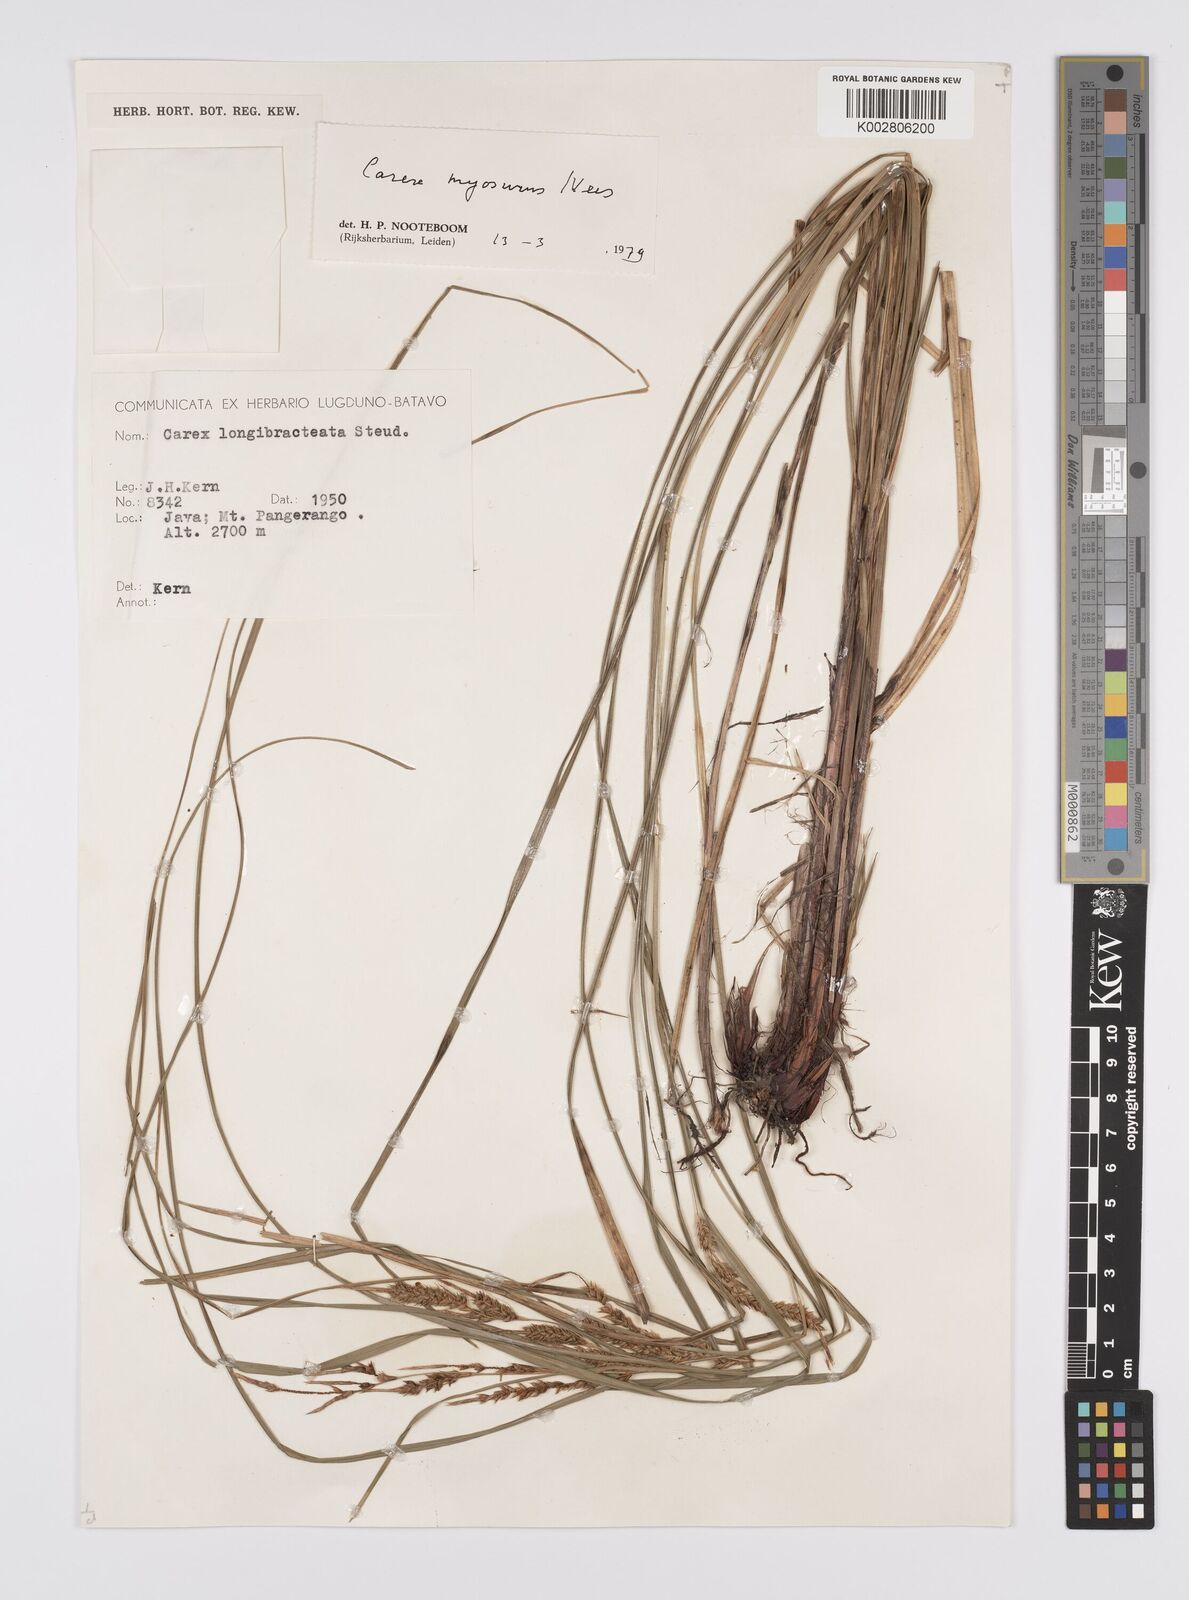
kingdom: Plantae
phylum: Tracheophyta
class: Liliopsida
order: Poales
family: Cyperaceae
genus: Carex
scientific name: Carex myosurus
